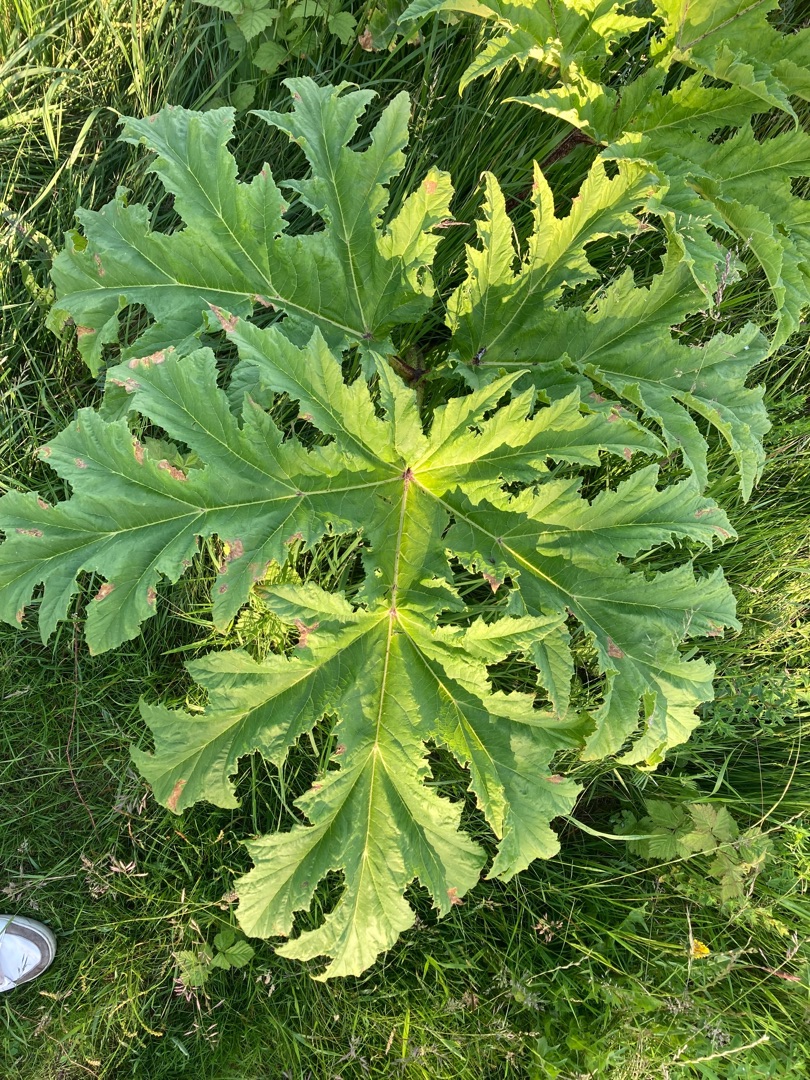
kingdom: Plantae
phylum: Tracheophyta
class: Magnoliopsida
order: Apiales
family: Apiaceae
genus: Heracleum
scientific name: Heracleum mantegazzianum
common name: Kæmpe-bjørneklo
